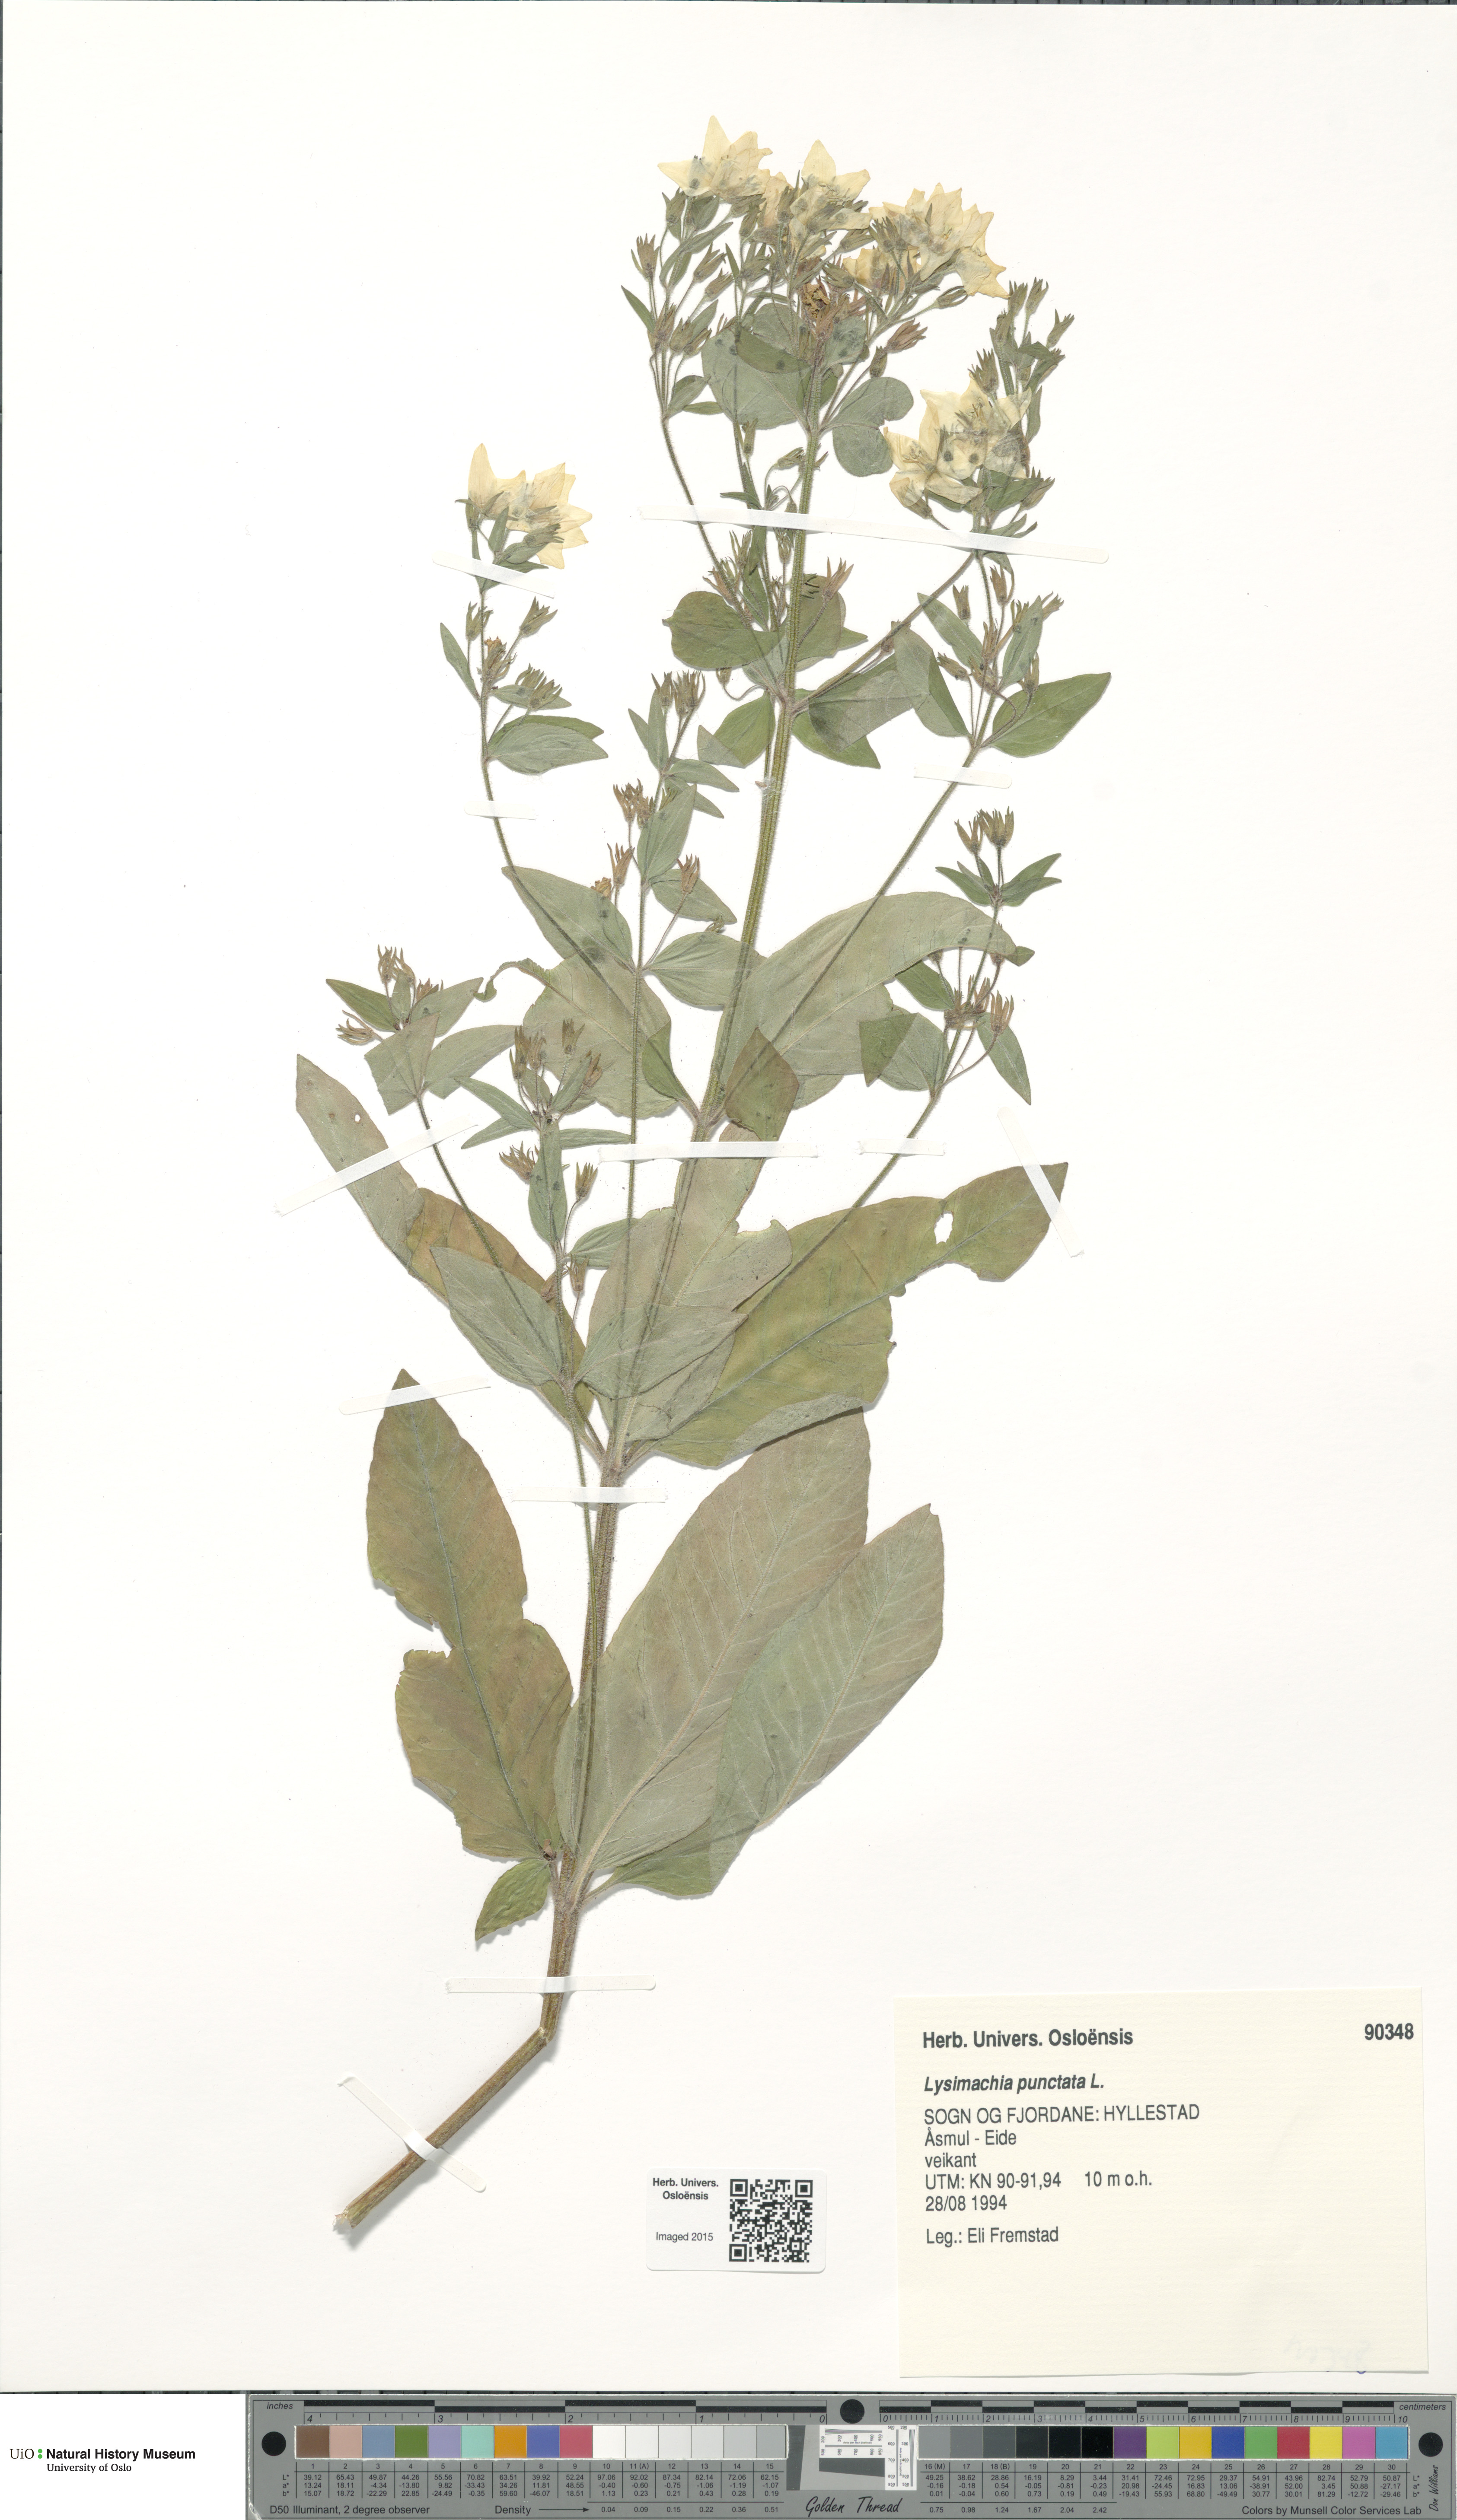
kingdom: Plantae
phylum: Tracheophyta
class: Magnoliopsida
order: Ericales
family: Primulaceae
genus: Lysimachia
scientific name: Lysimachia punctata
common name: Dotted loosestrife
